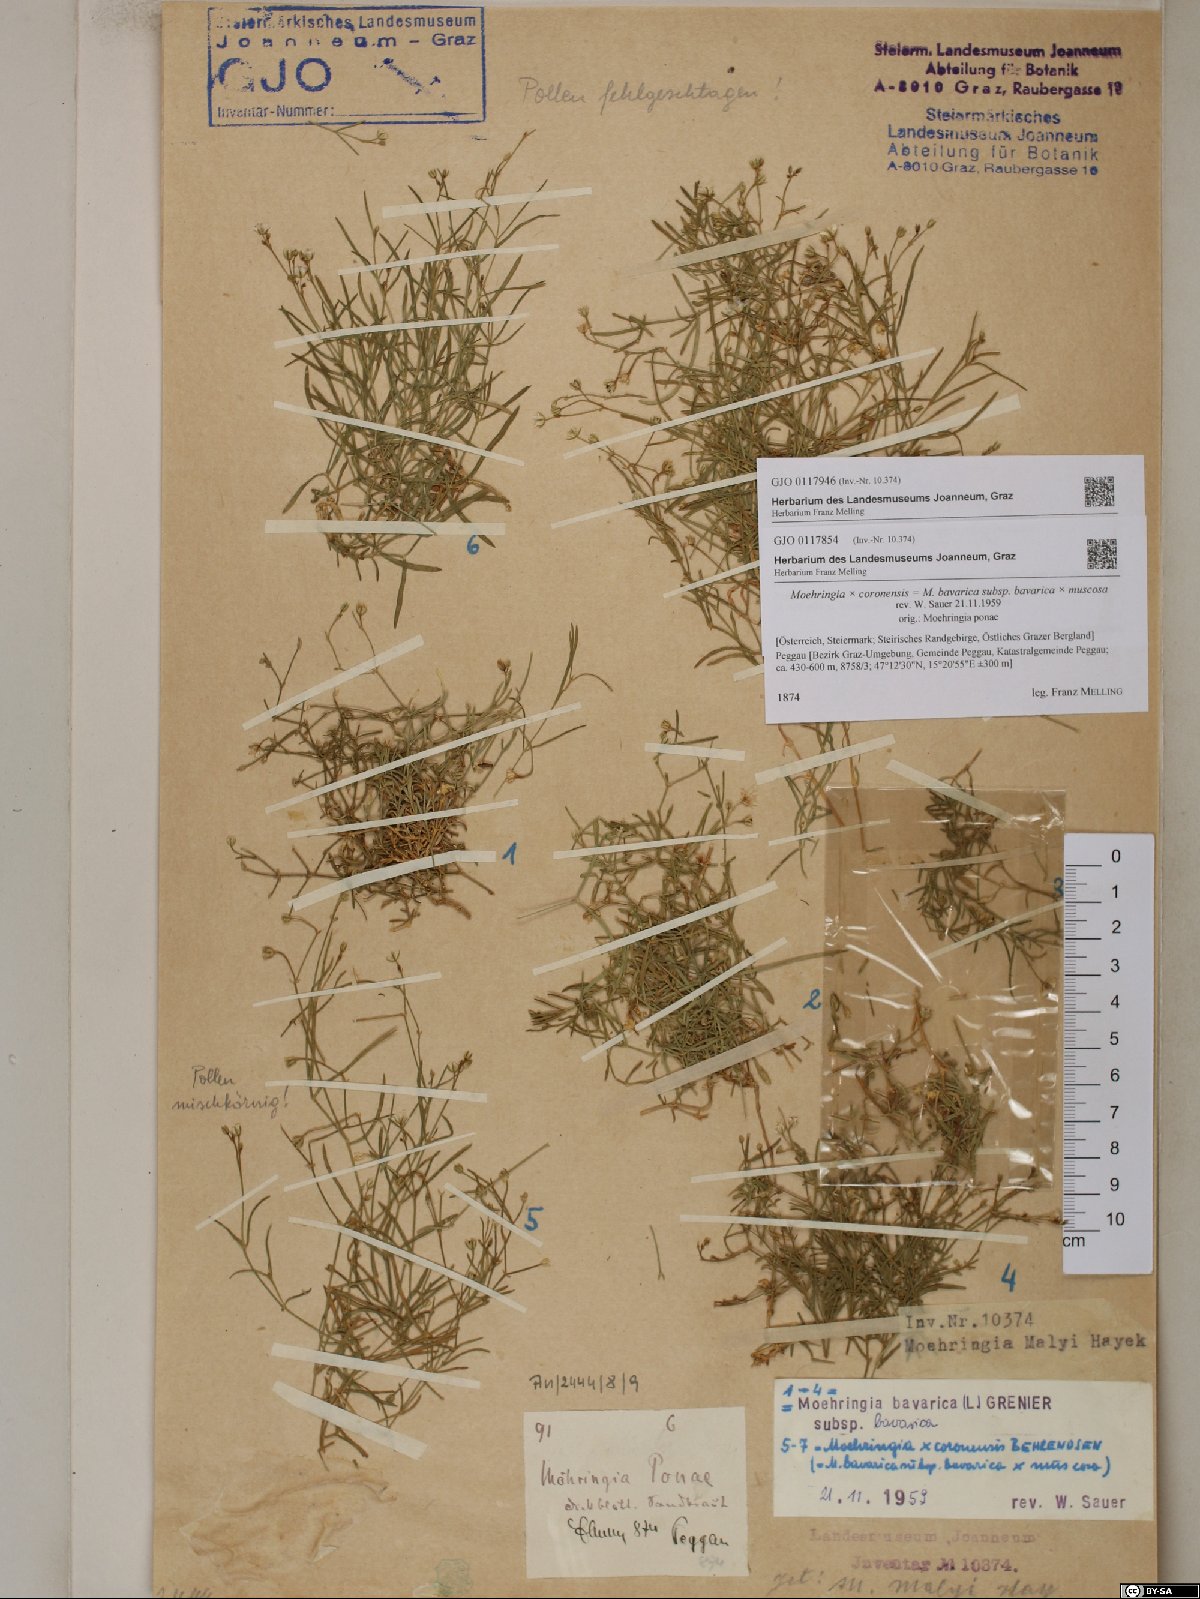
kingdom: Plantae
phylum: Tracheophyta
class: Magnoliopsida
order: Caryophyllales
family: Caryophyllaceae
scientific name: Caryophyllaceae
